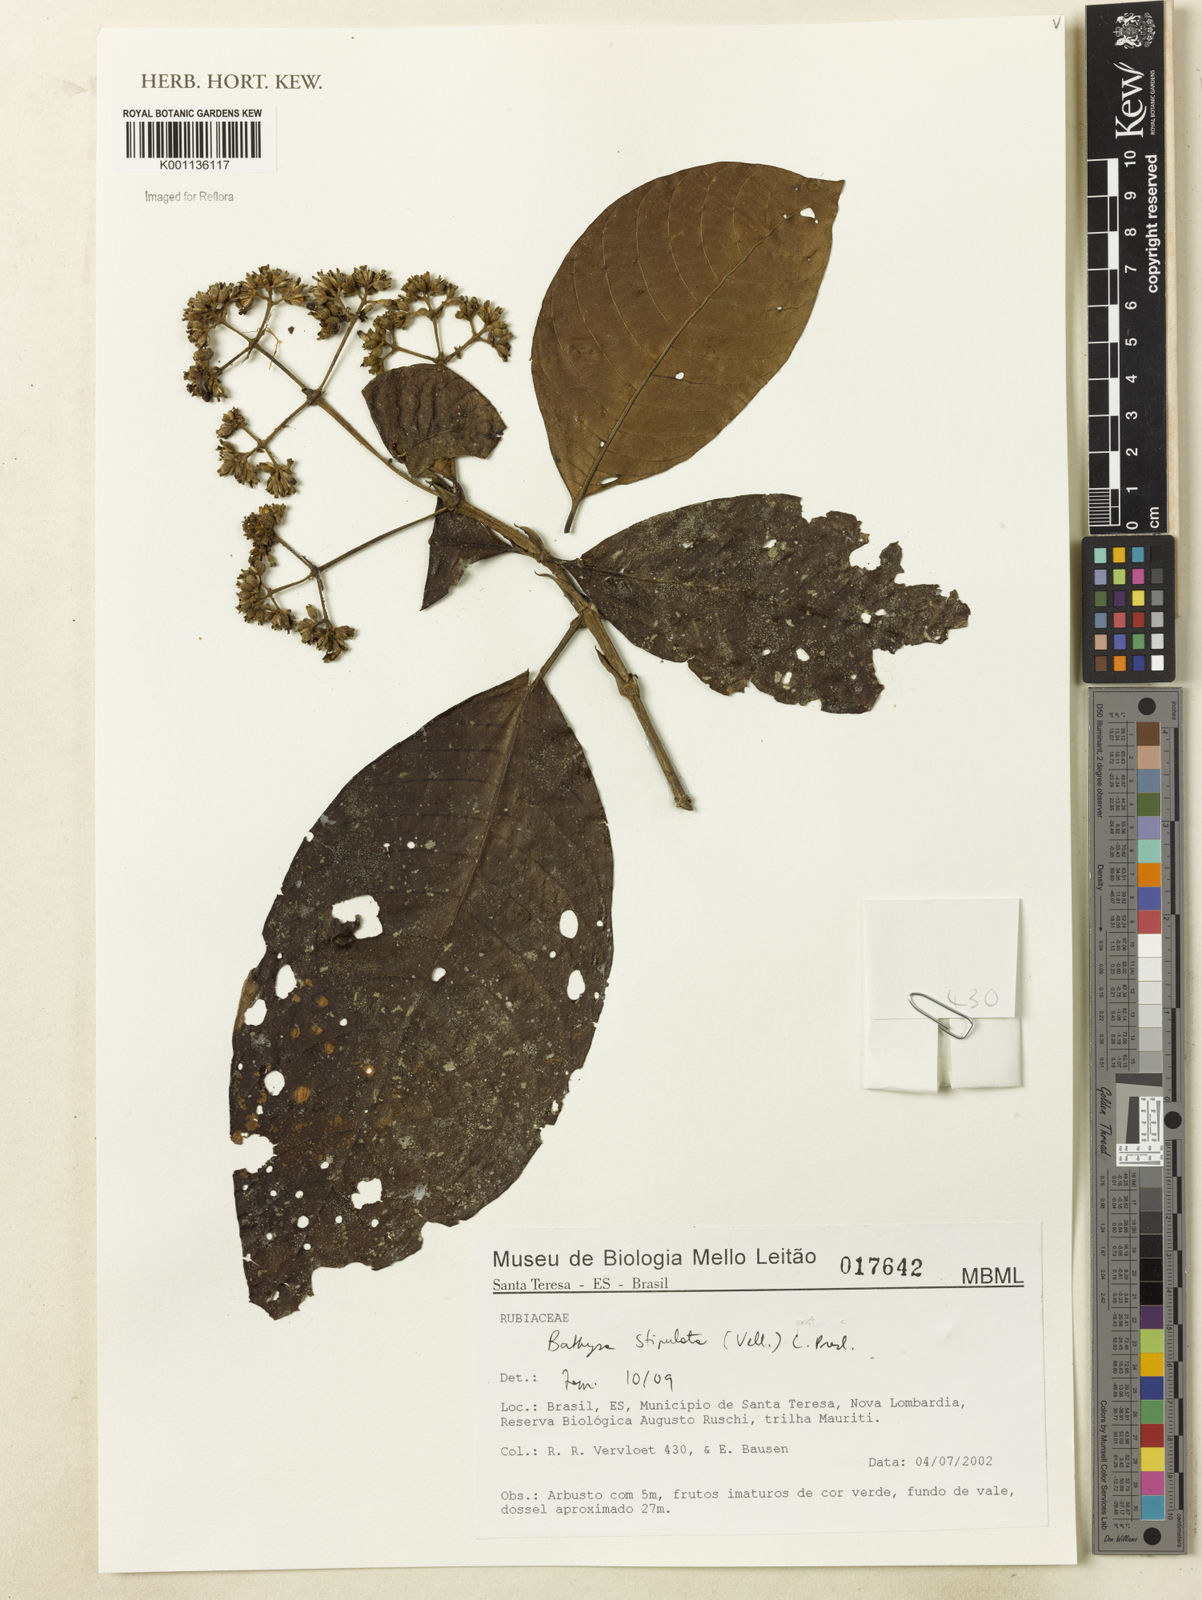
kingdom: Plantae
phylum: Tracheophyta
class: Magnoliopsida
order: Gentianales
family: Rubiaceae
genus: Bathysa
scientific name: Bathysa stipulata
